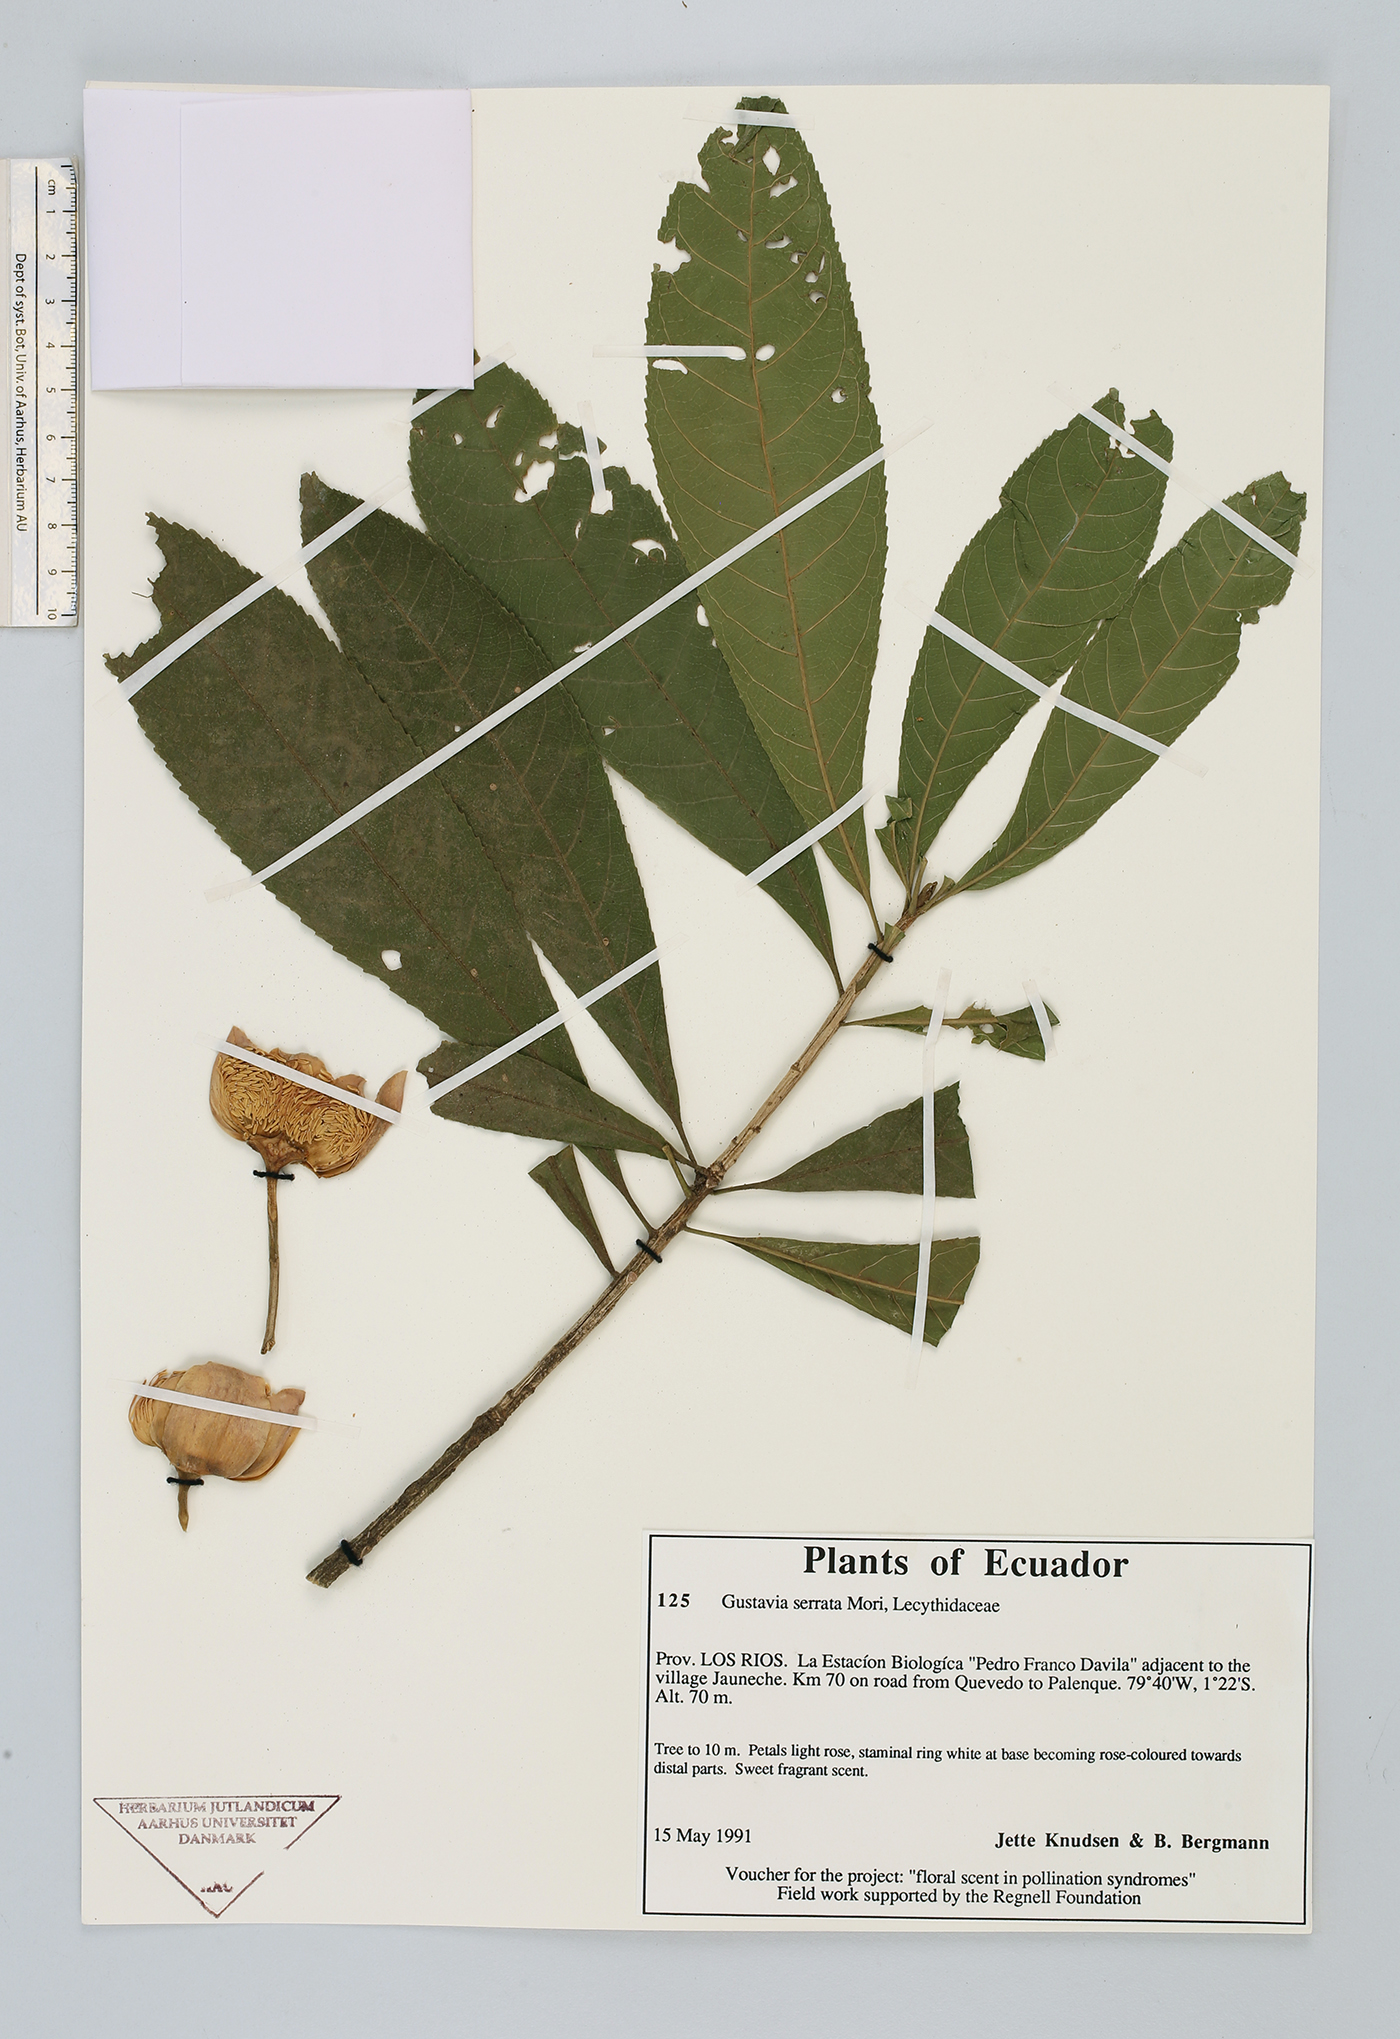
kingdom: Plantae
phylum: Tracheophyta
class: Magnoliopsida
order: Ericales
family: Lecythidaceae
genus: Gustavia
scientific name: Gustavia serrata
